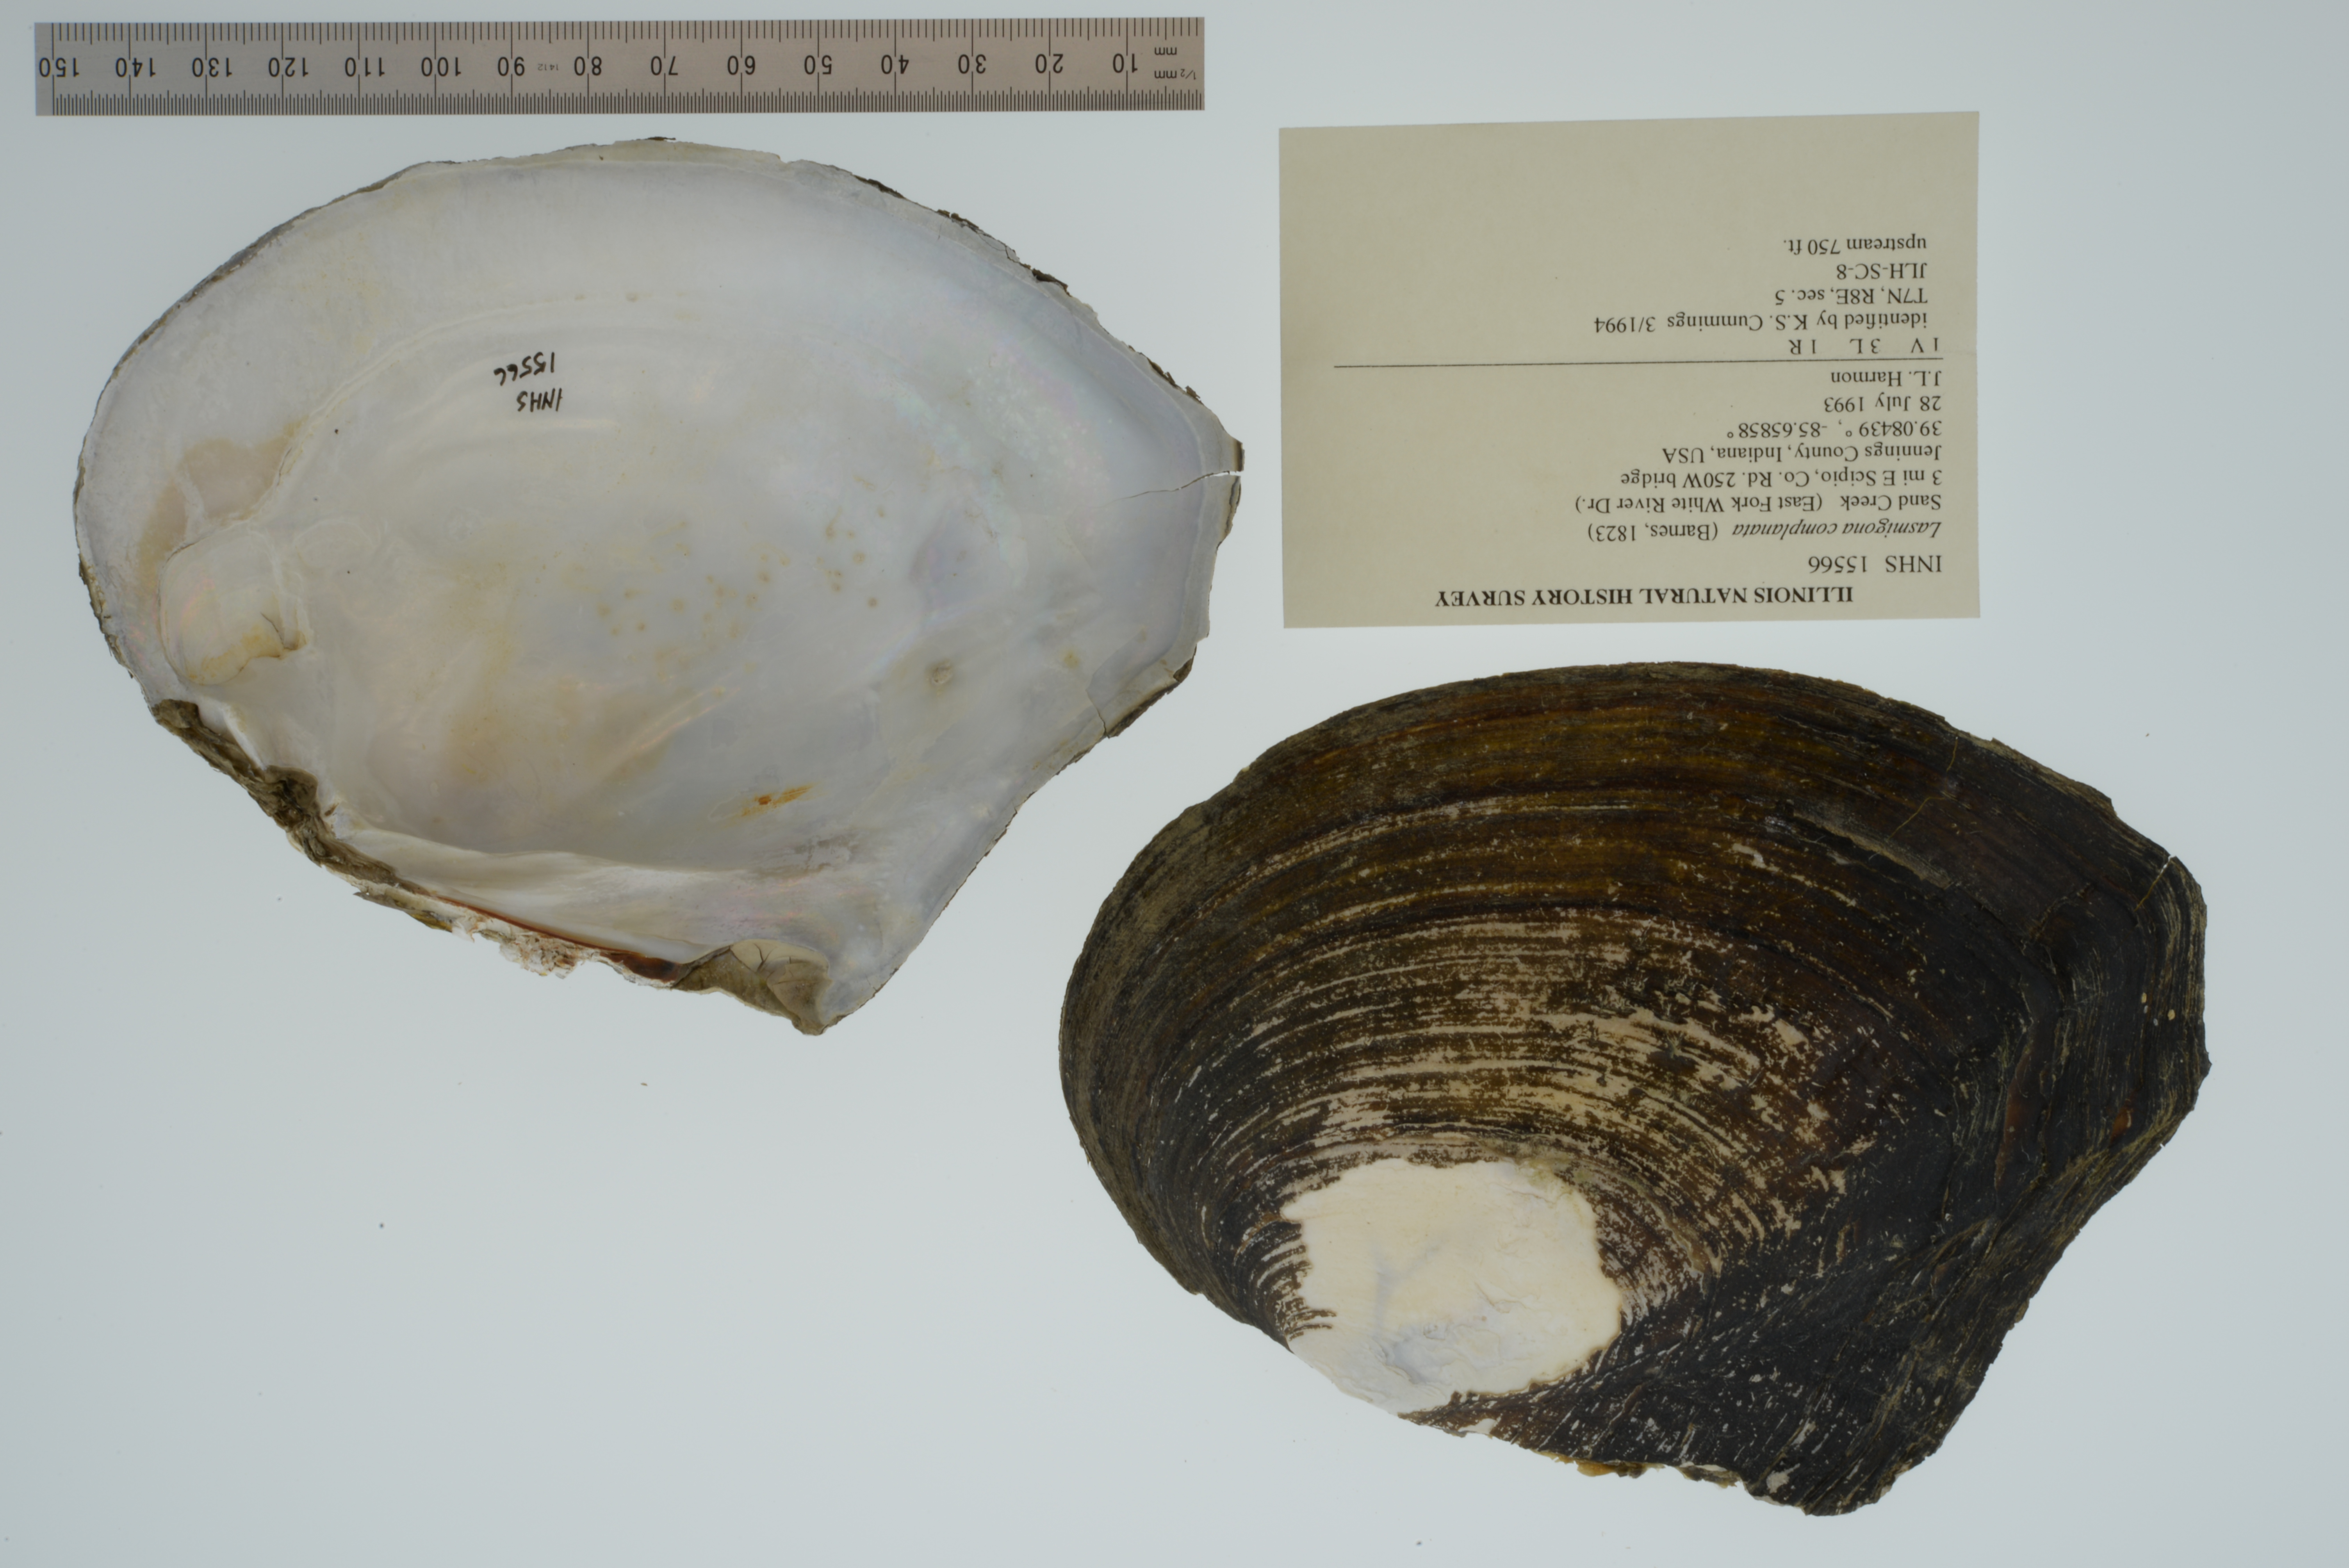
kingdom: Animalia
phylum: Mollusca
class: Bivalvia
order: Unionida
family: Unionidae
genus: Lasmigona
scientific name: Lasmigona complanata
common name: White heelsplitter
